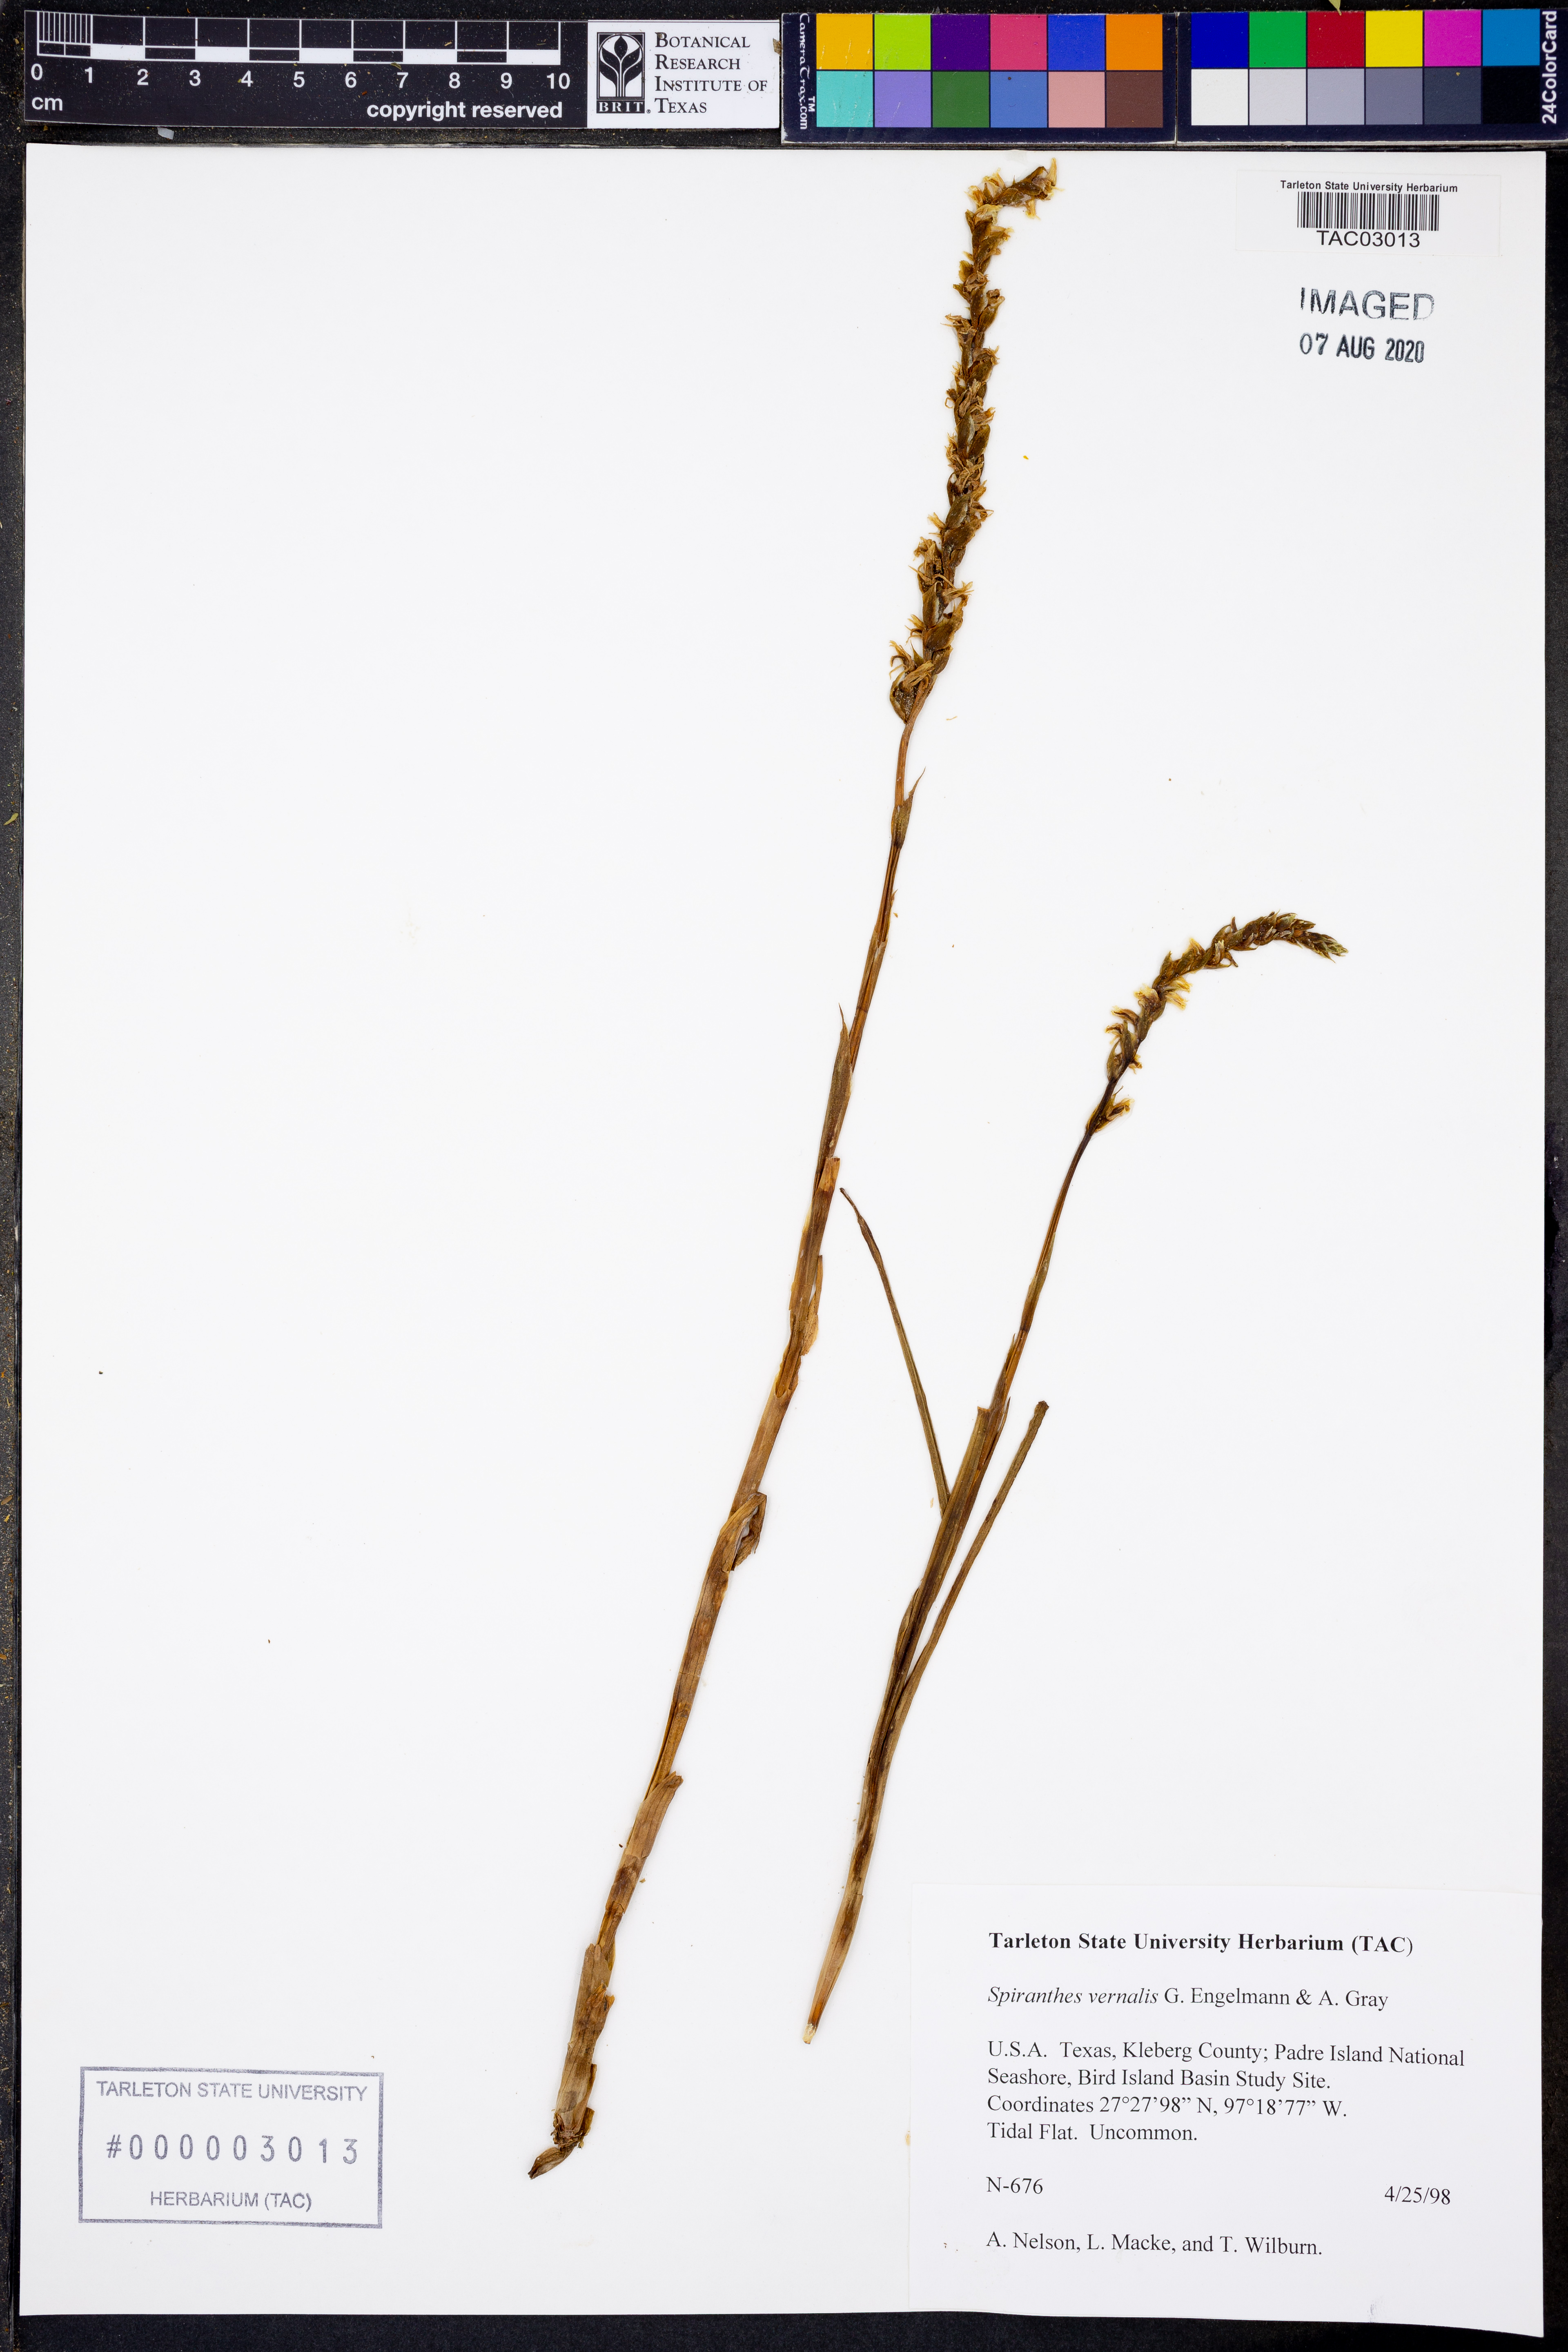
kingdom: Plantae
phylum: Tracheophyta
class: Liliopsida
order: Asparagales
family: Orchidaceae
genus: Spiranthes
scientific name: Spiranthes vernalis
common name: Spring ladies'-tresses
